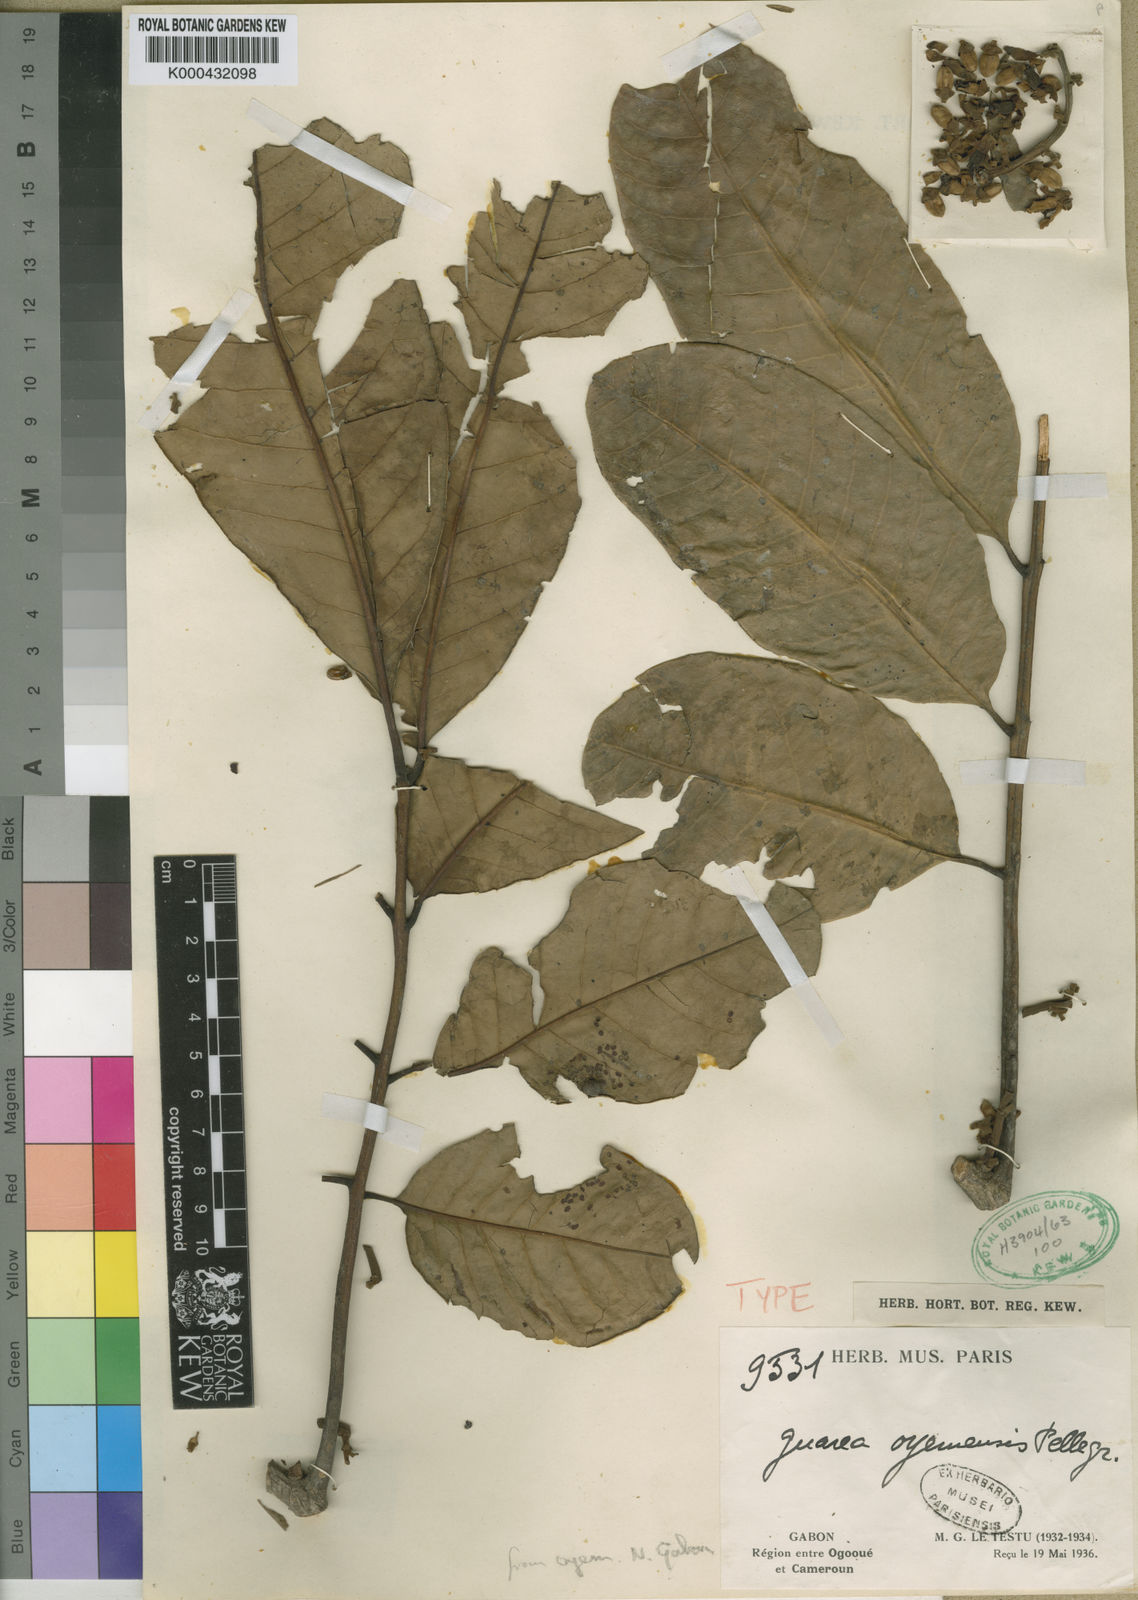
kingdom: Plantae
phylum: Tracheophyta
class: Magnoliopsida
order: Sapindales
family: Meliaceae
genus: Leplaea
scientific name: Leplaea thompsonii
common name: Black guarea
